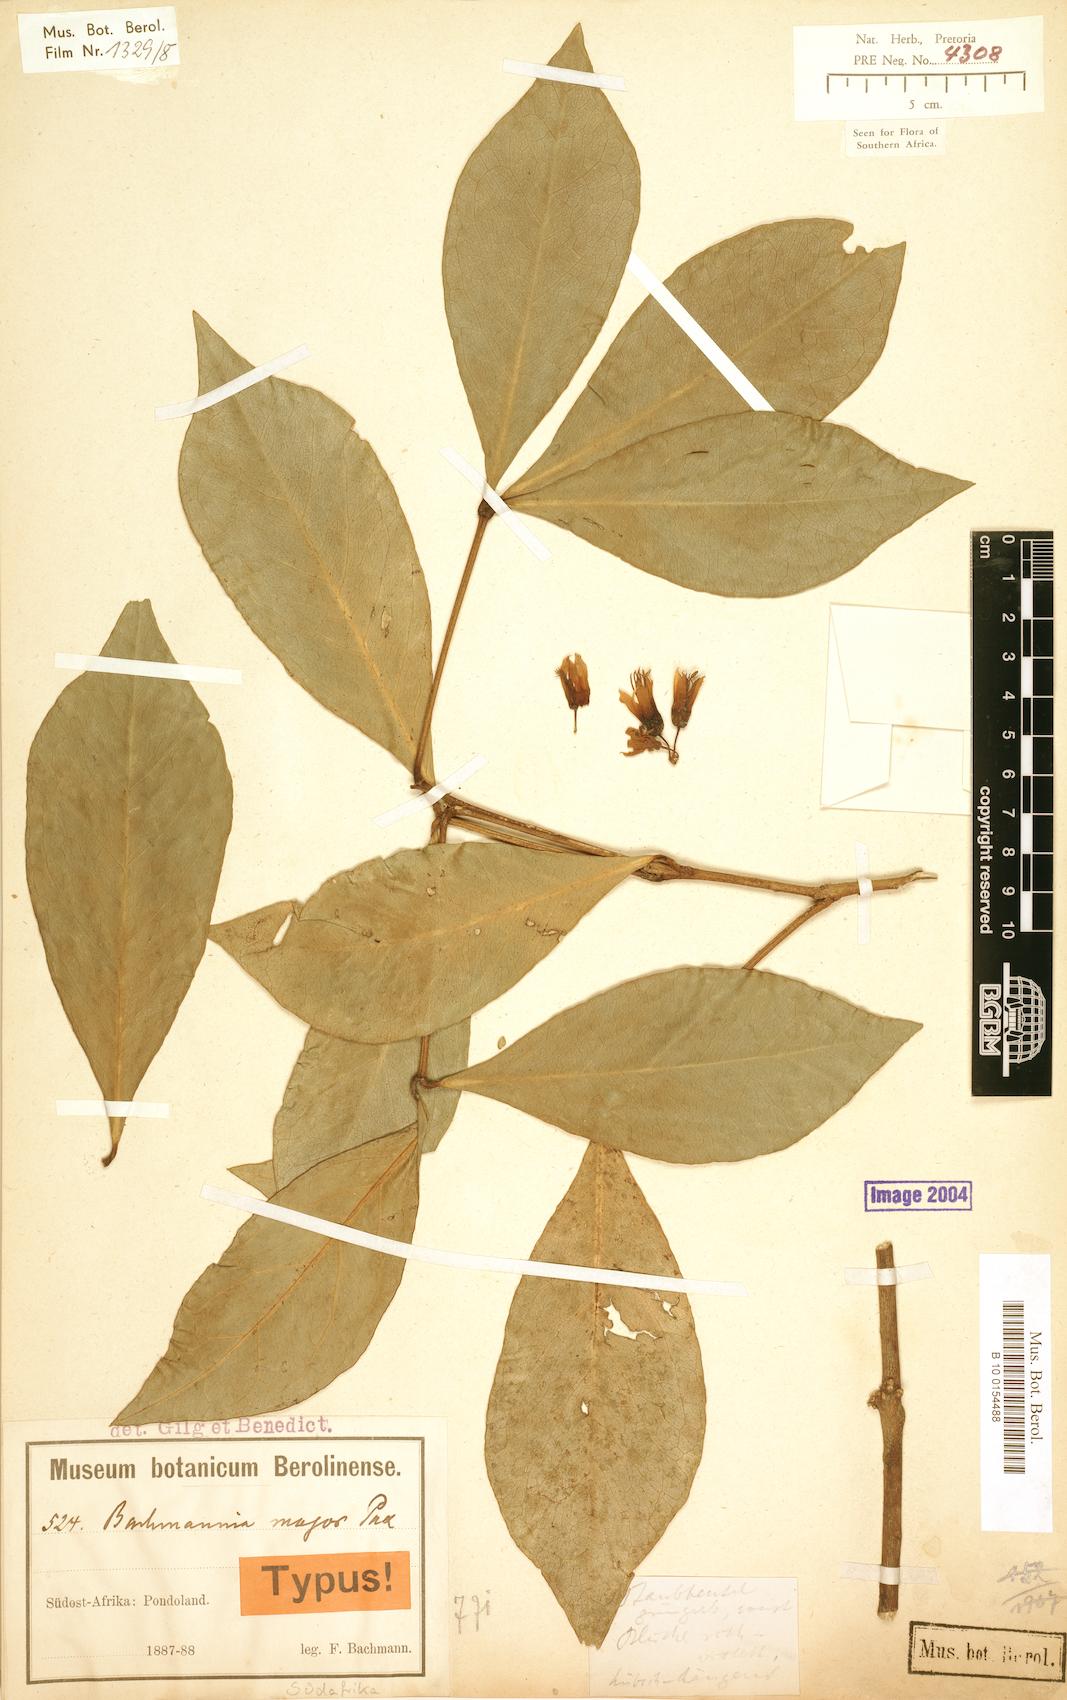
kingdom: Plantae
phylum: Tracheophyta
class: Magnoliopsida
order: Brassicales
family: Capparaceae
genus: Bachmannia
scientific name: Bachmannia woodii
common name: Four-finger bush
